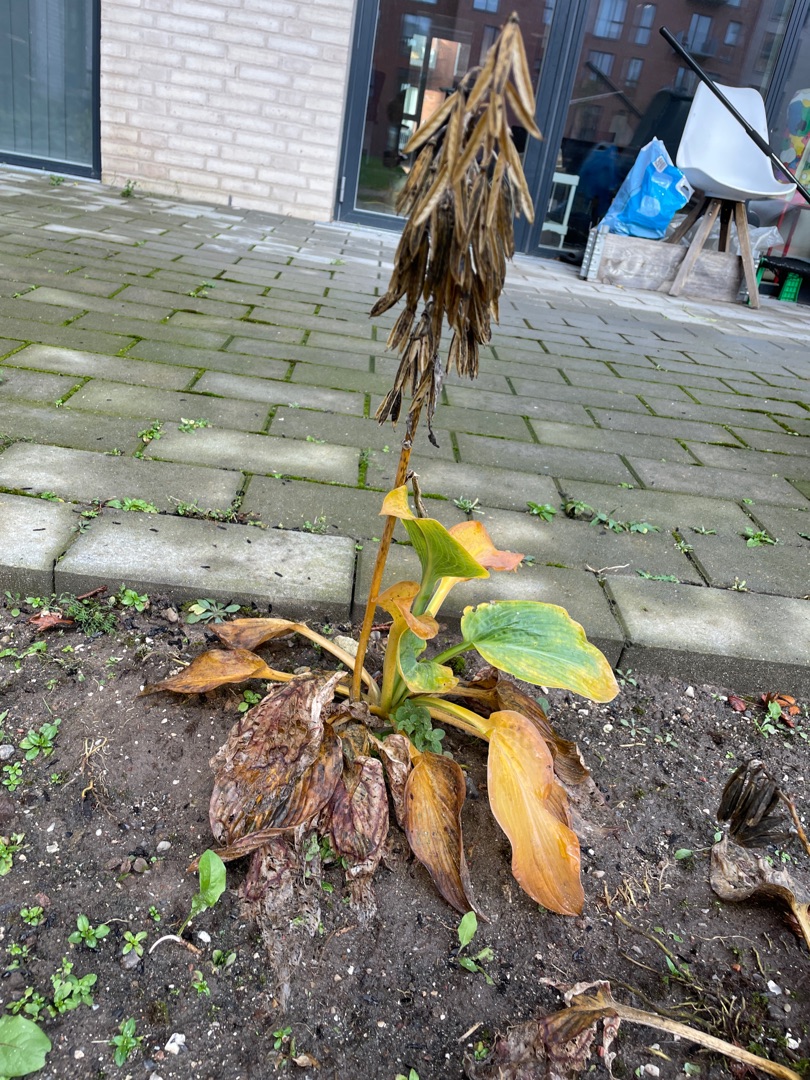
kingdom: Plantae
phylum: Tracheophyta
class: Liliopsida
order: Asparagales
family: Asparagaceae
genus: Hosta
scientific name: Hosta
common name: Hostaslægten
